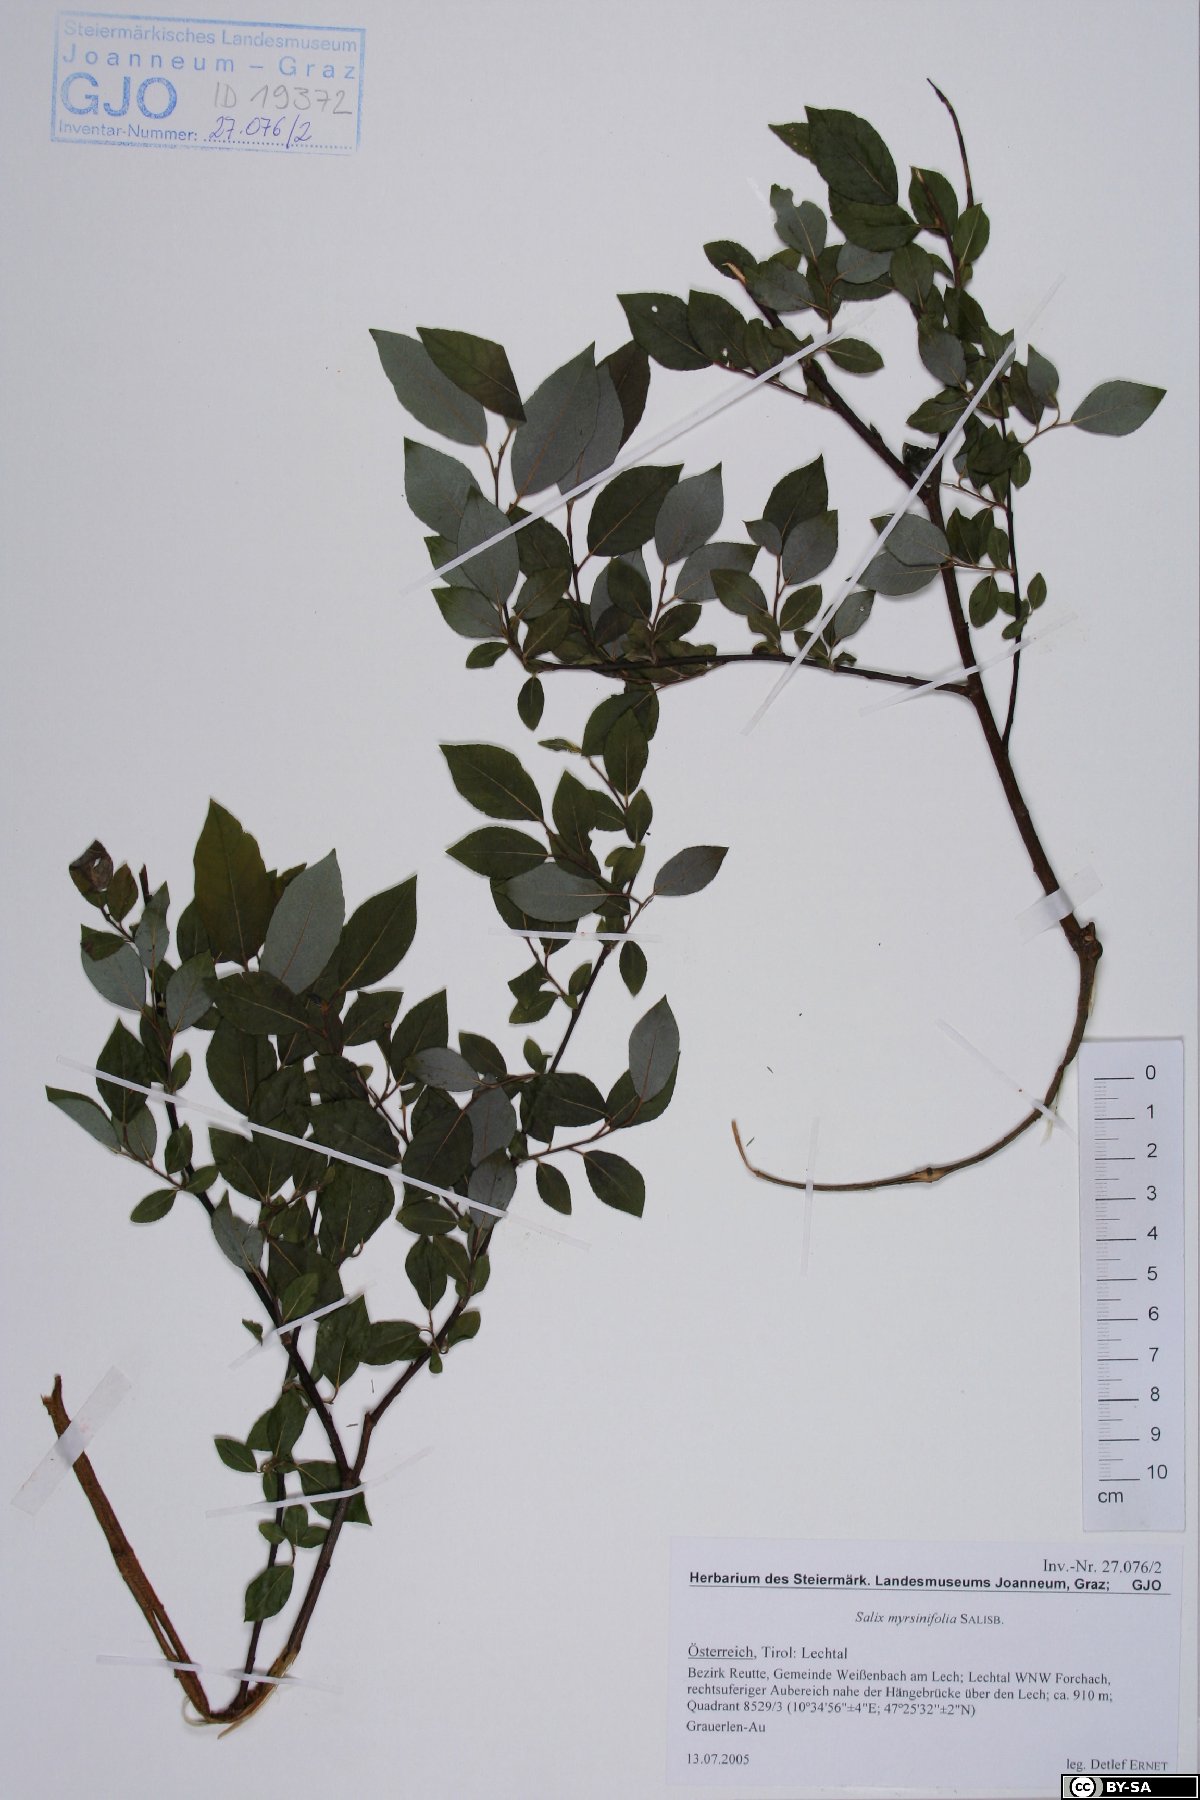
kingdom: Plantae
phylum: Tracheophyta
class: Magnoliopsida
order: Malpighiales
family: Salicaceae
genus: Salix
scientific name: Salix myrsinifolia
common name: Dark-leaved willow
